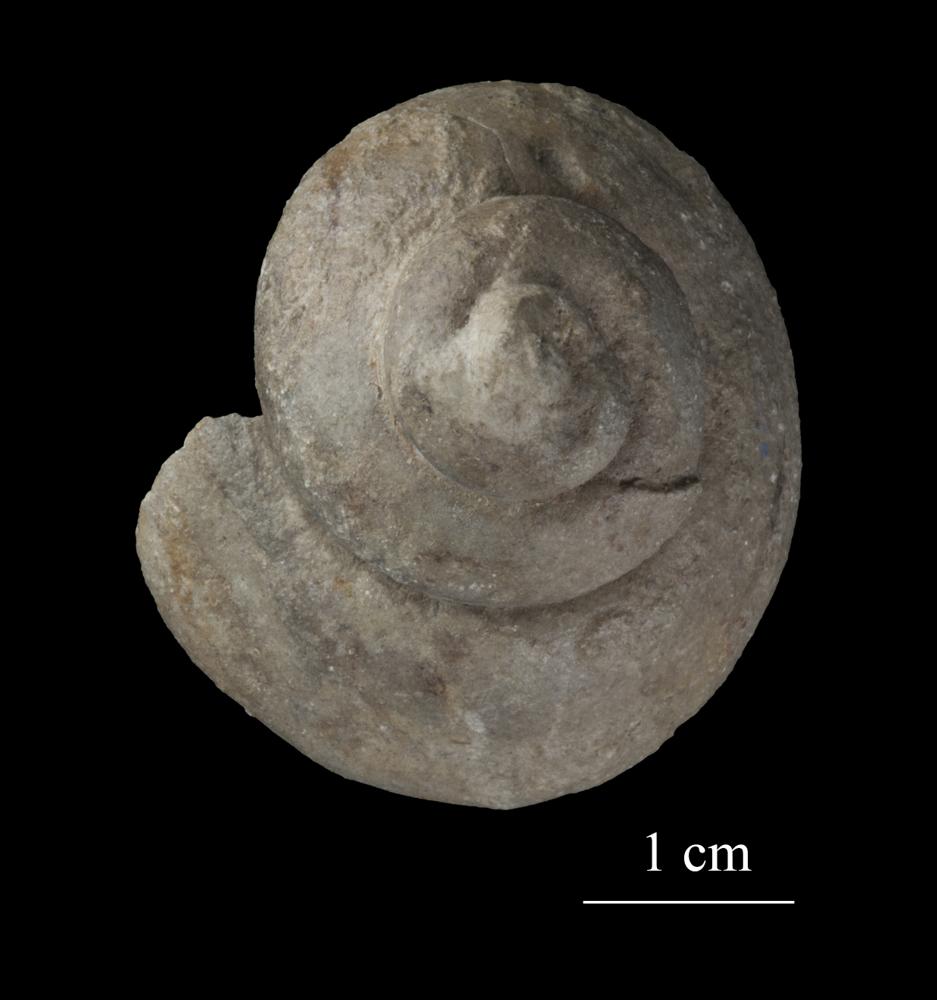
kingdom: Animalia
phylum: Mollusca
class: Gastropoda
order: Pleurotomariida
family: Pleurotomariidae
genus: Pleurotomaria
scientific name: Pleurotomaria
